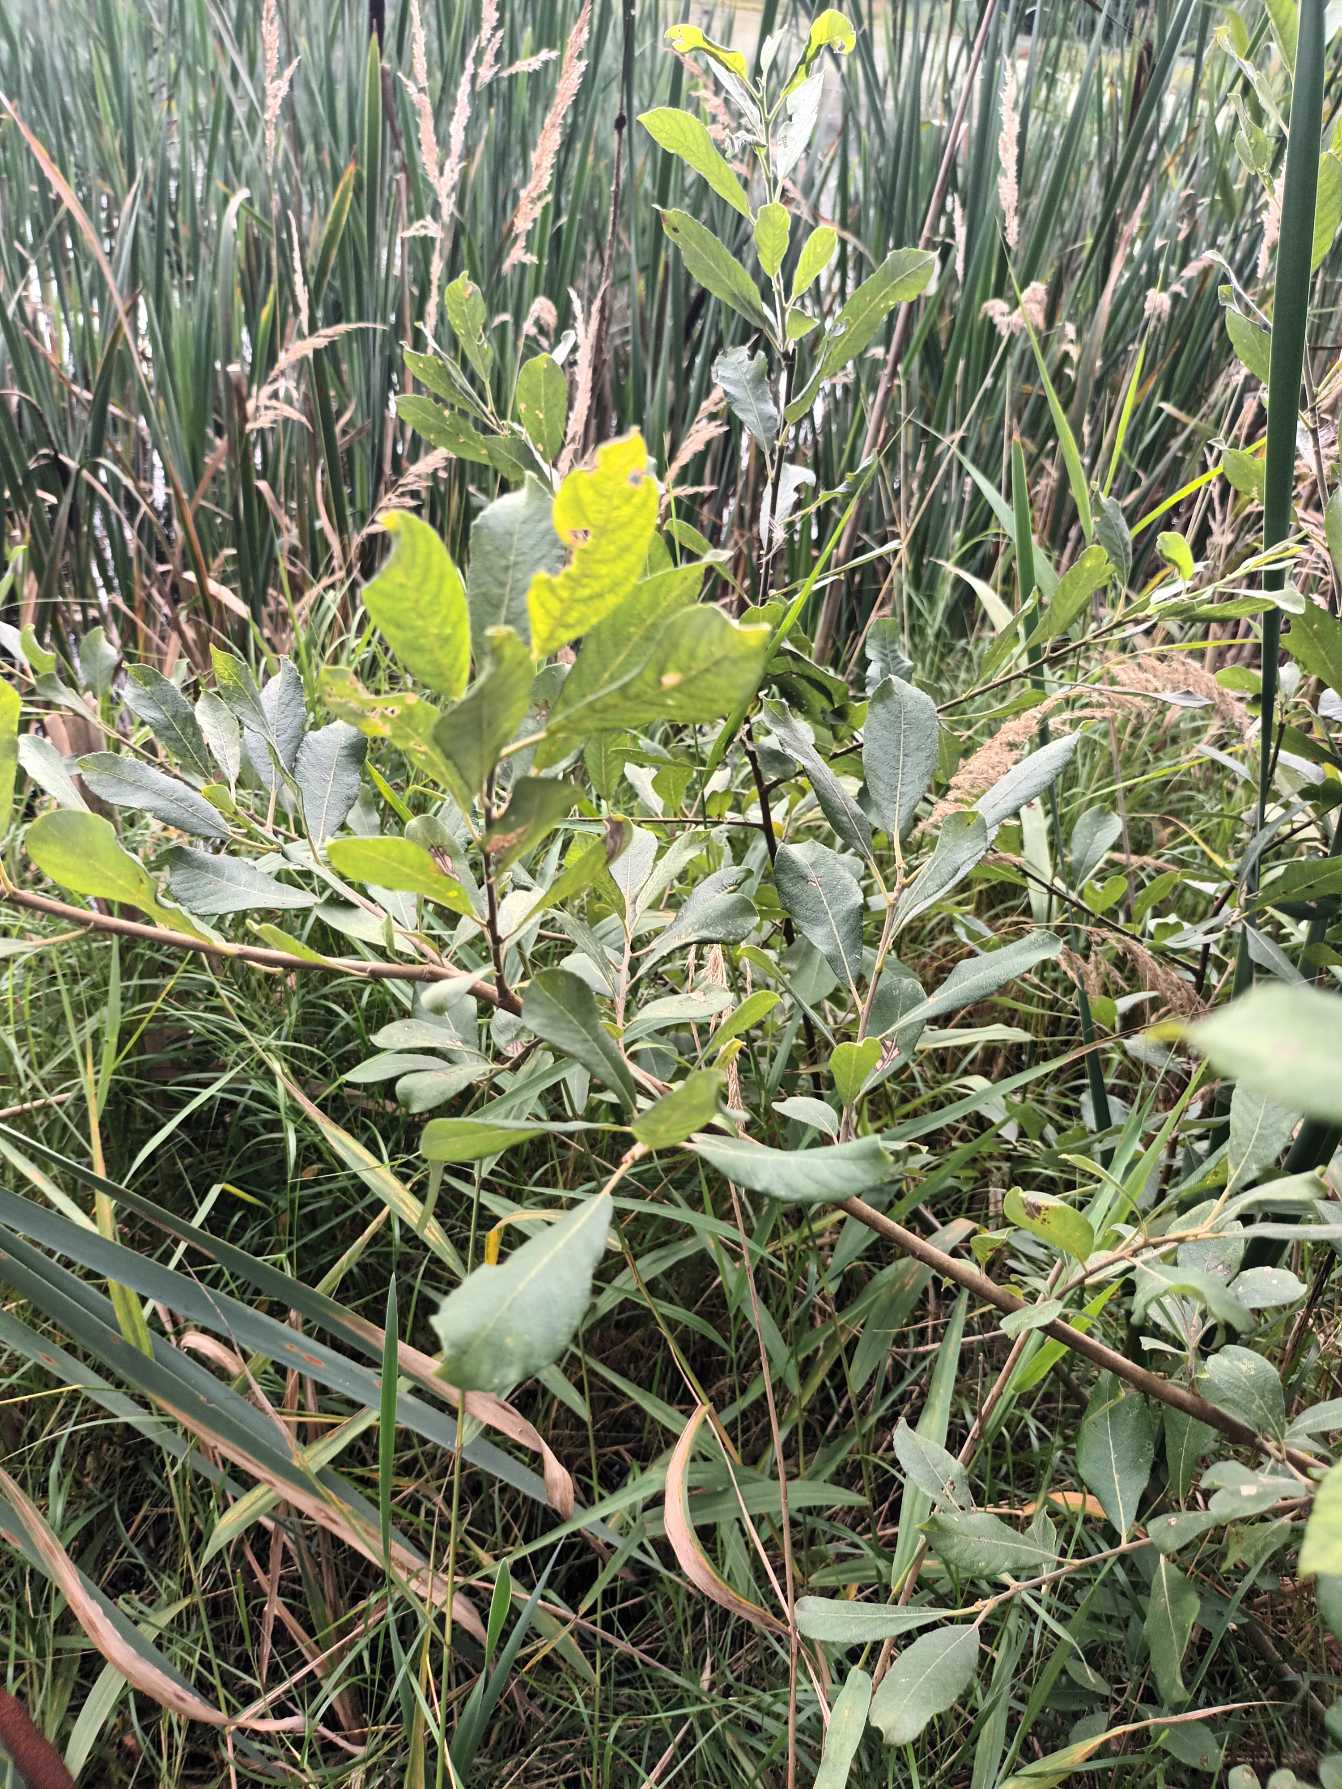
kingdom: Plantae
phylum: Tracheophyta
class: Magnoliopsida
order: Malpighiales
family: Salicaceae
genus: Salix
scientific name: Salix cinerea
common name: Grå-pil
